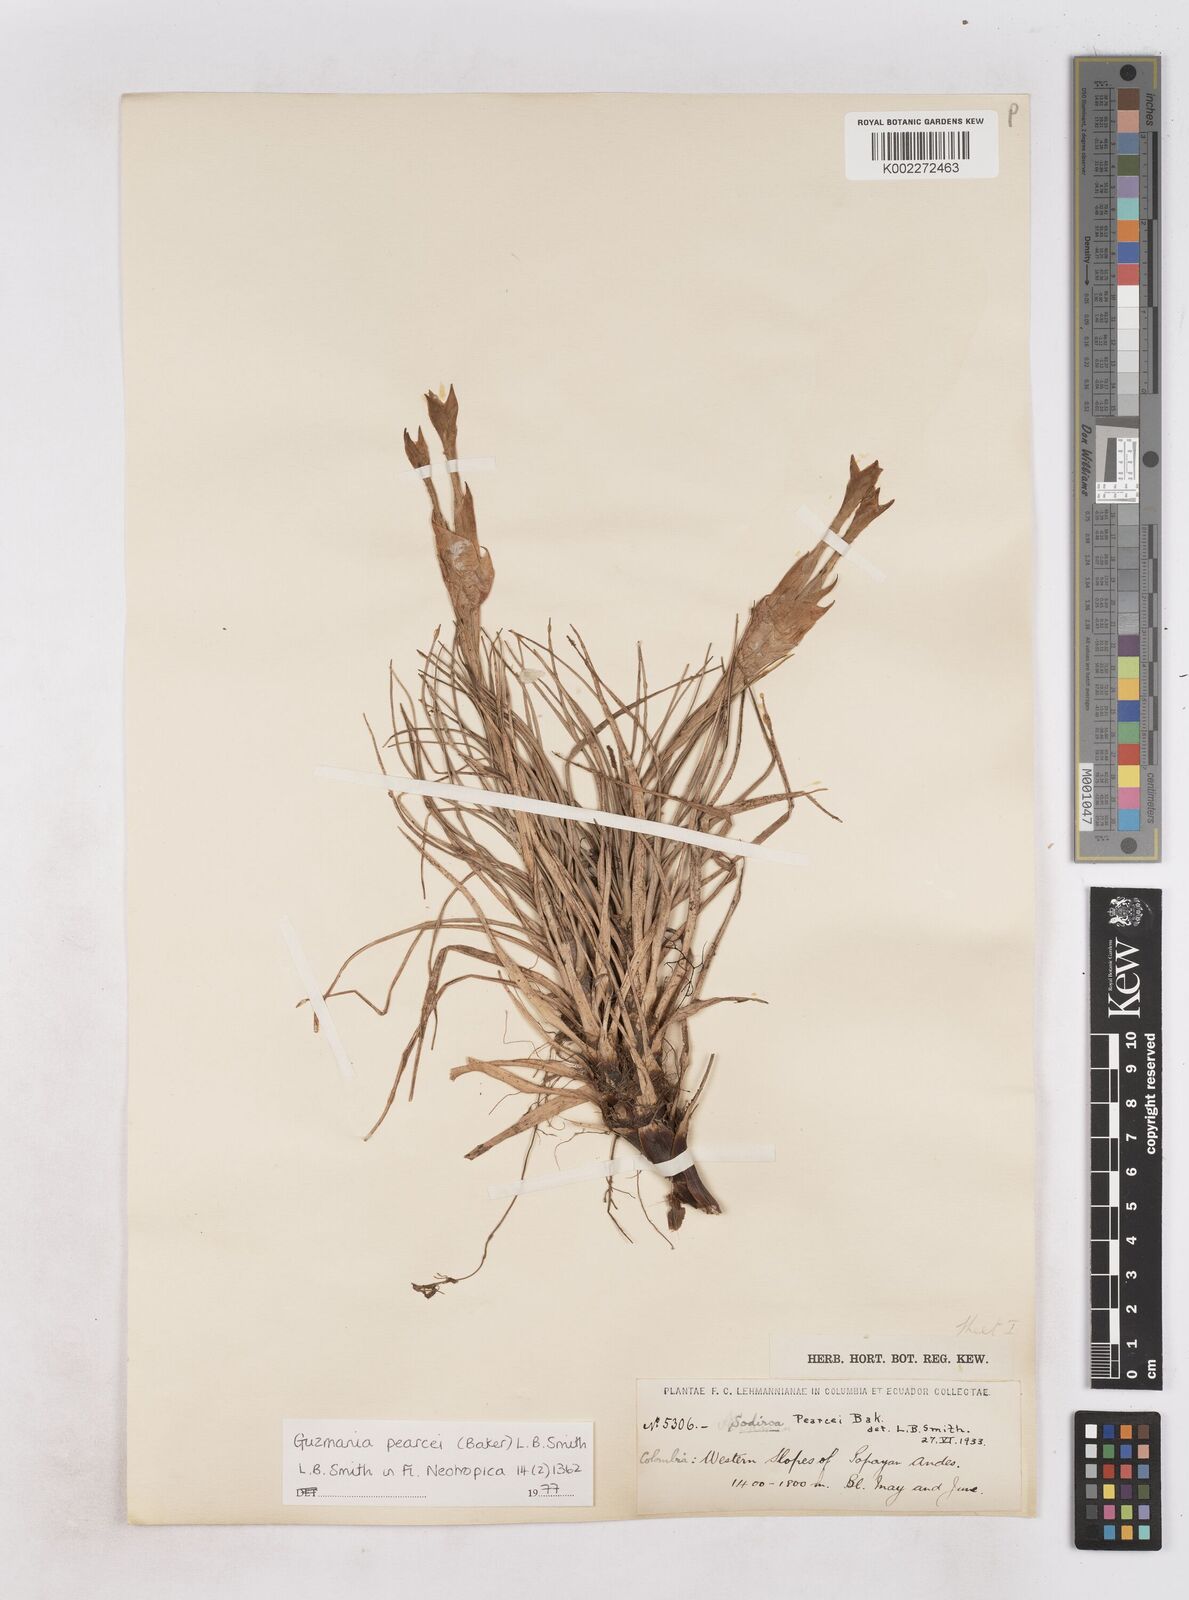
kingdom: Plantae
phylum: Tracheophyta
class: Liliopsida
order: Poales
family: Bromeliaceae
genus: Guzmania
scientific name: Guzmania pearcei
